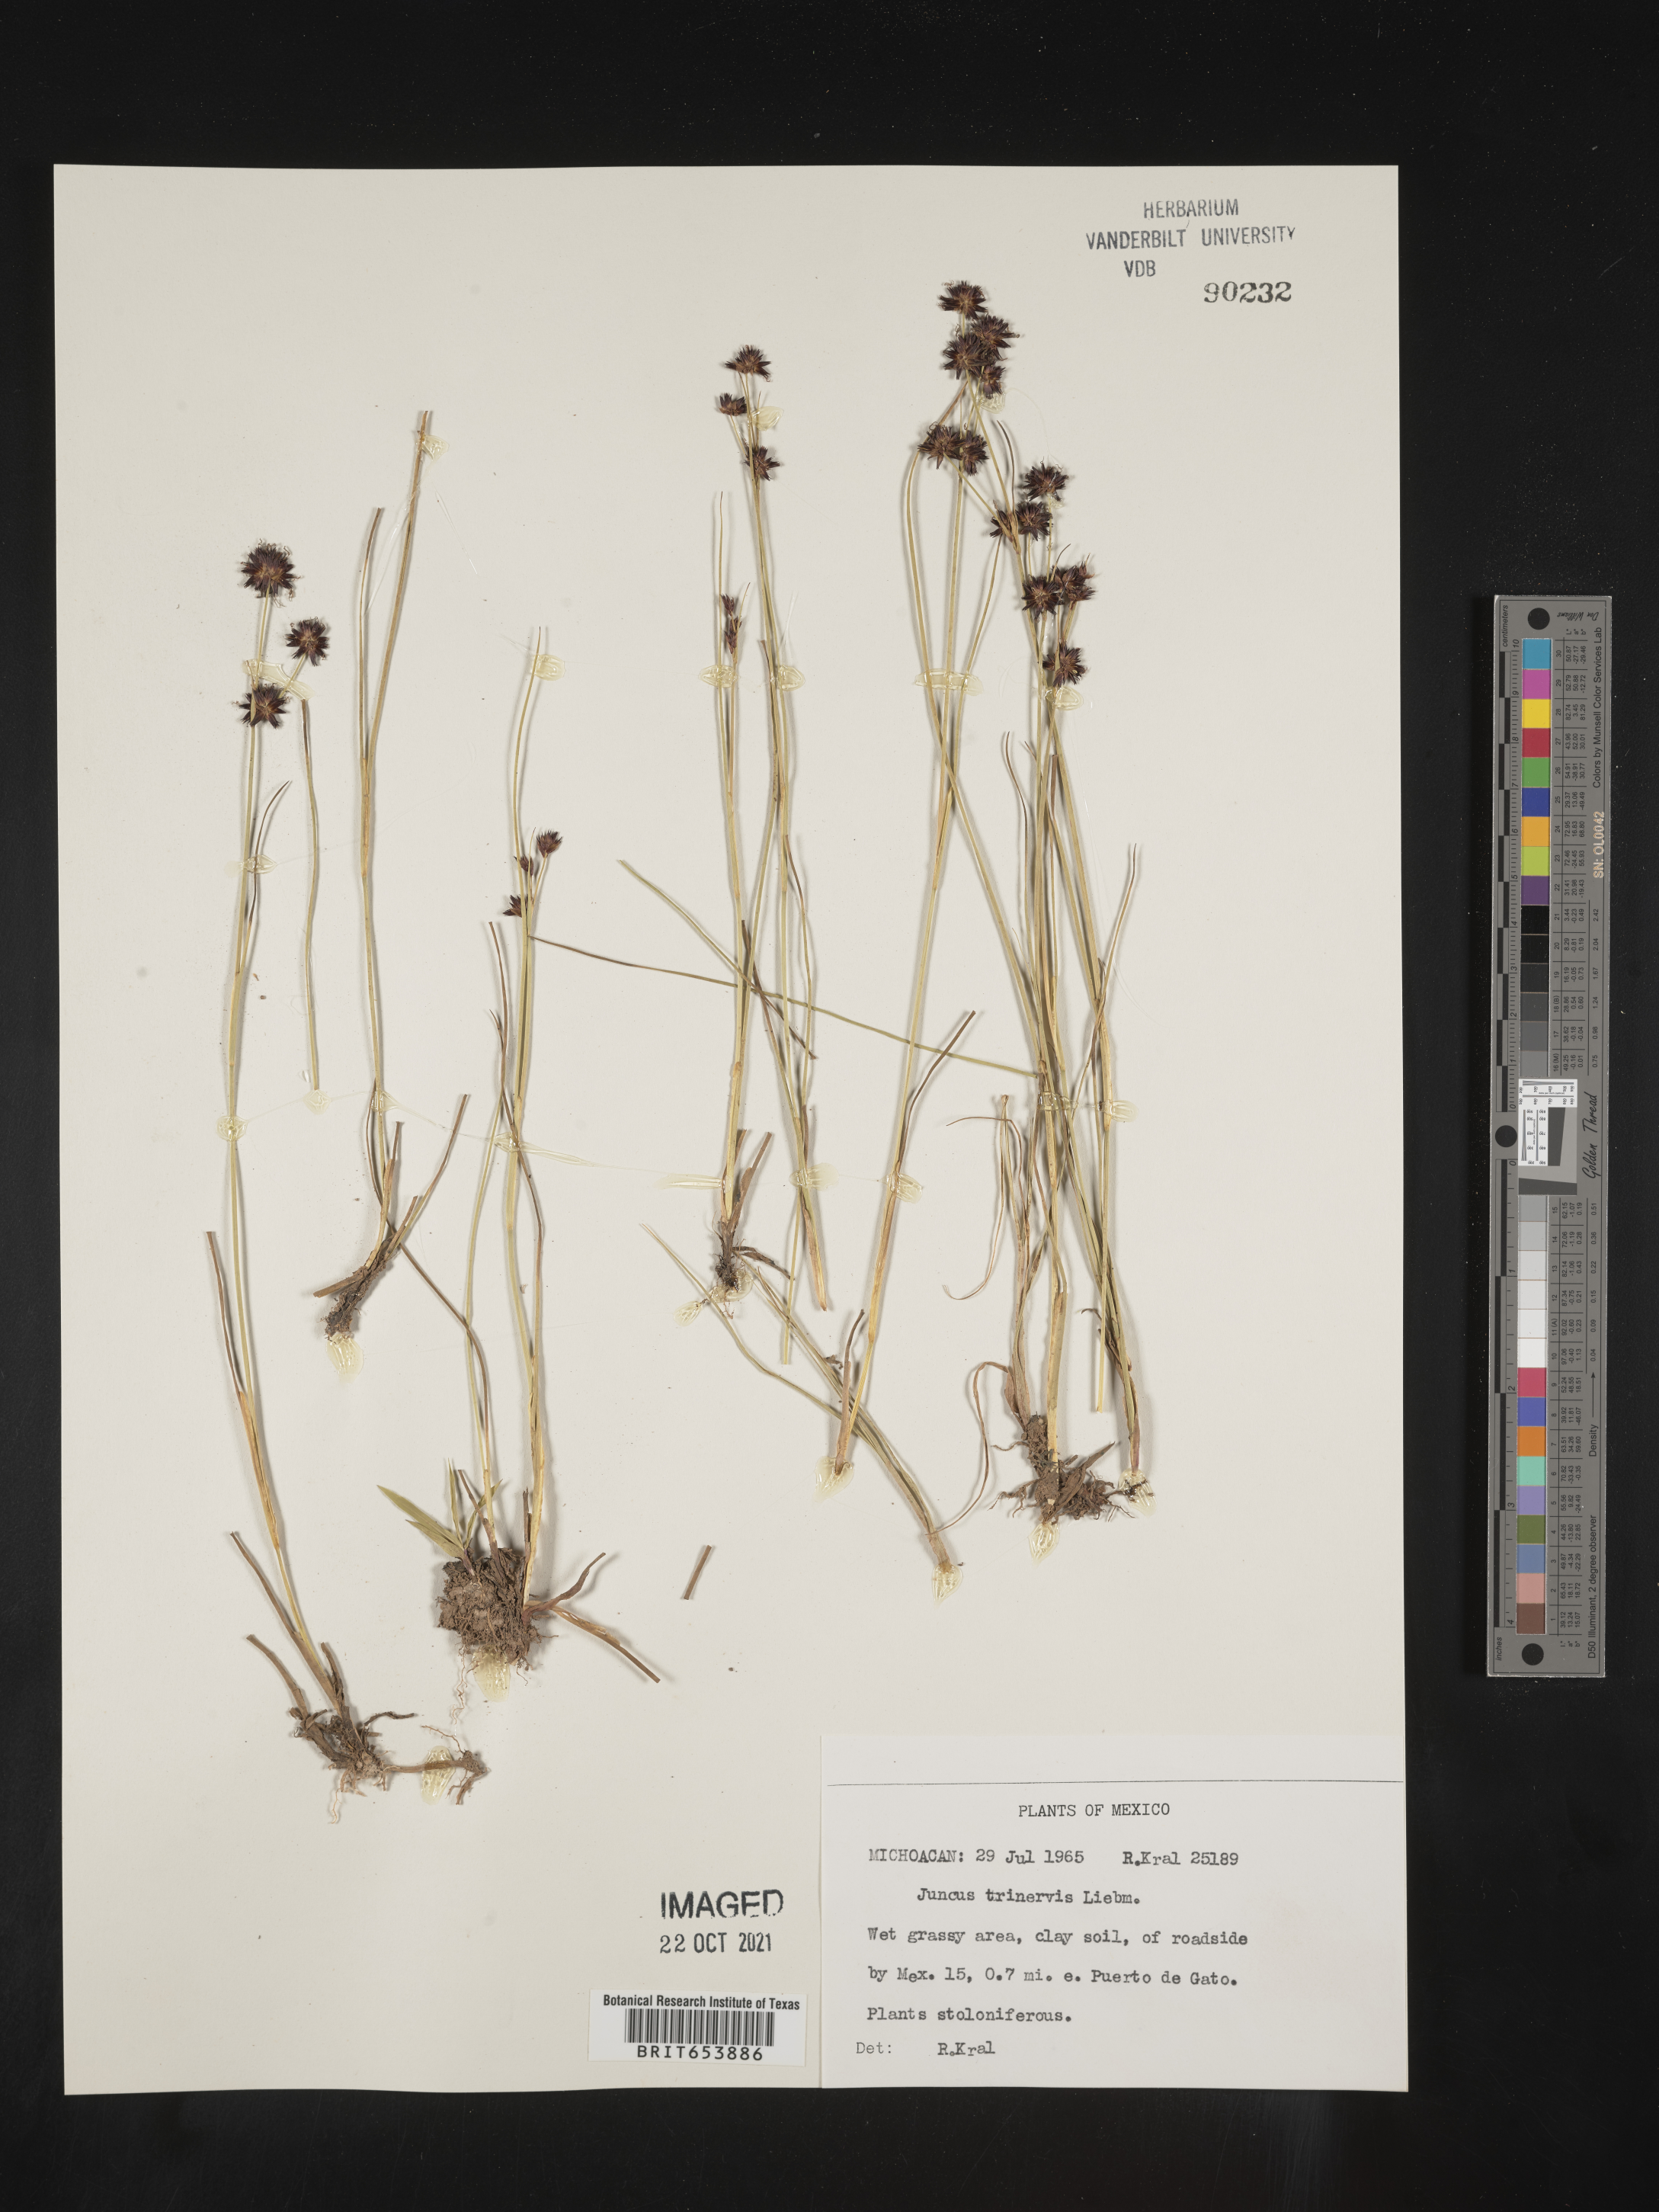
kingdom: Plantae
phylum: Tracheophyta
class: Liliopsida
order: Poales
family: Juncaceae
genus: Juncus
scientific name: Juncus
